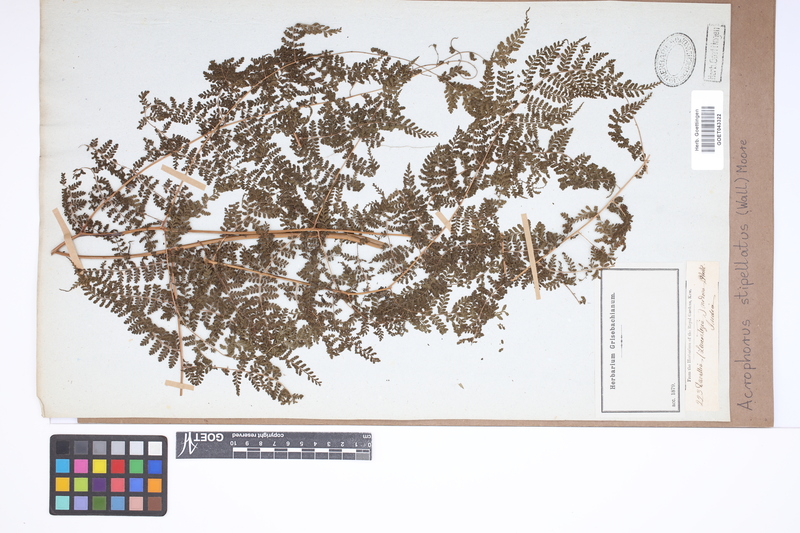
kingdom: Plantae
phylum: Tracheophyta
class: Polypodiopsida
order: Polypodiales
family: Dryopteridaceae
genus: Dryopteris
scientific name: Dryopteris nodosa
